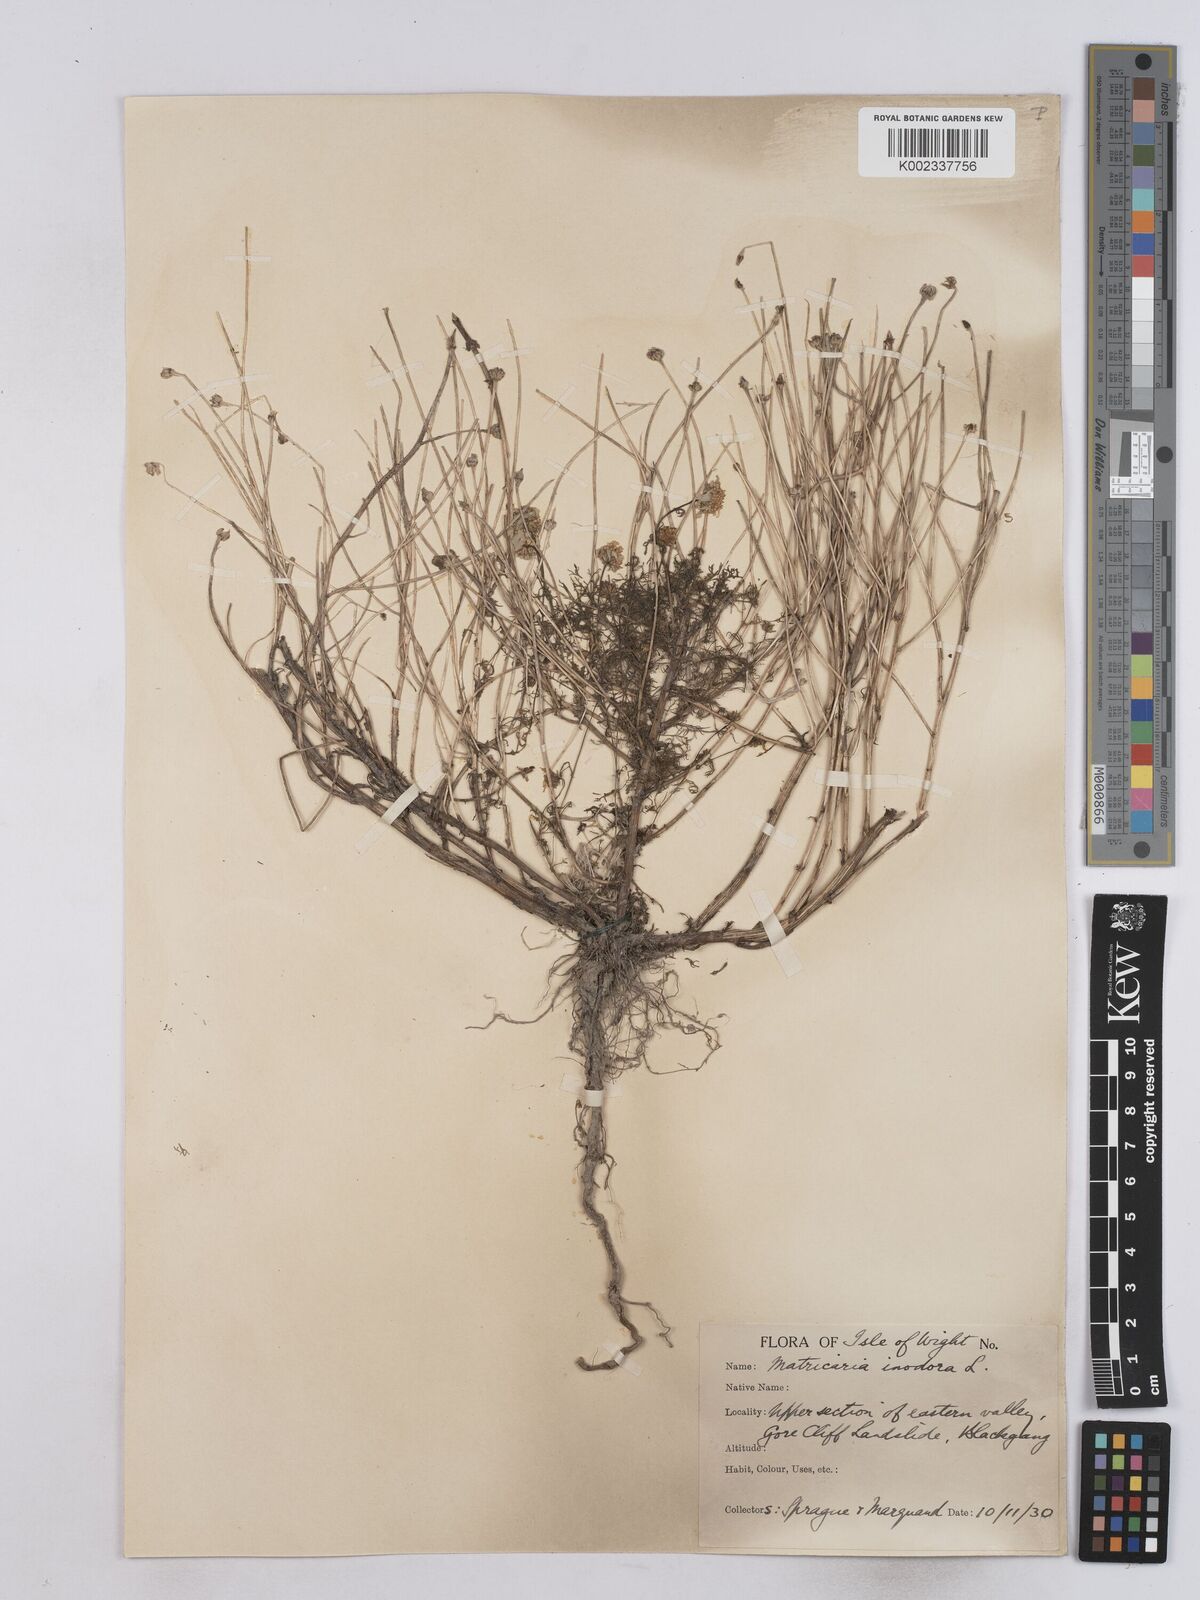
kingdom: Plantae
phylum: Tracheophyta
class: Magnoliopsida
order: Asterales
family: Asteraceae
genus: Matricaria
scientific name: Matricaria
